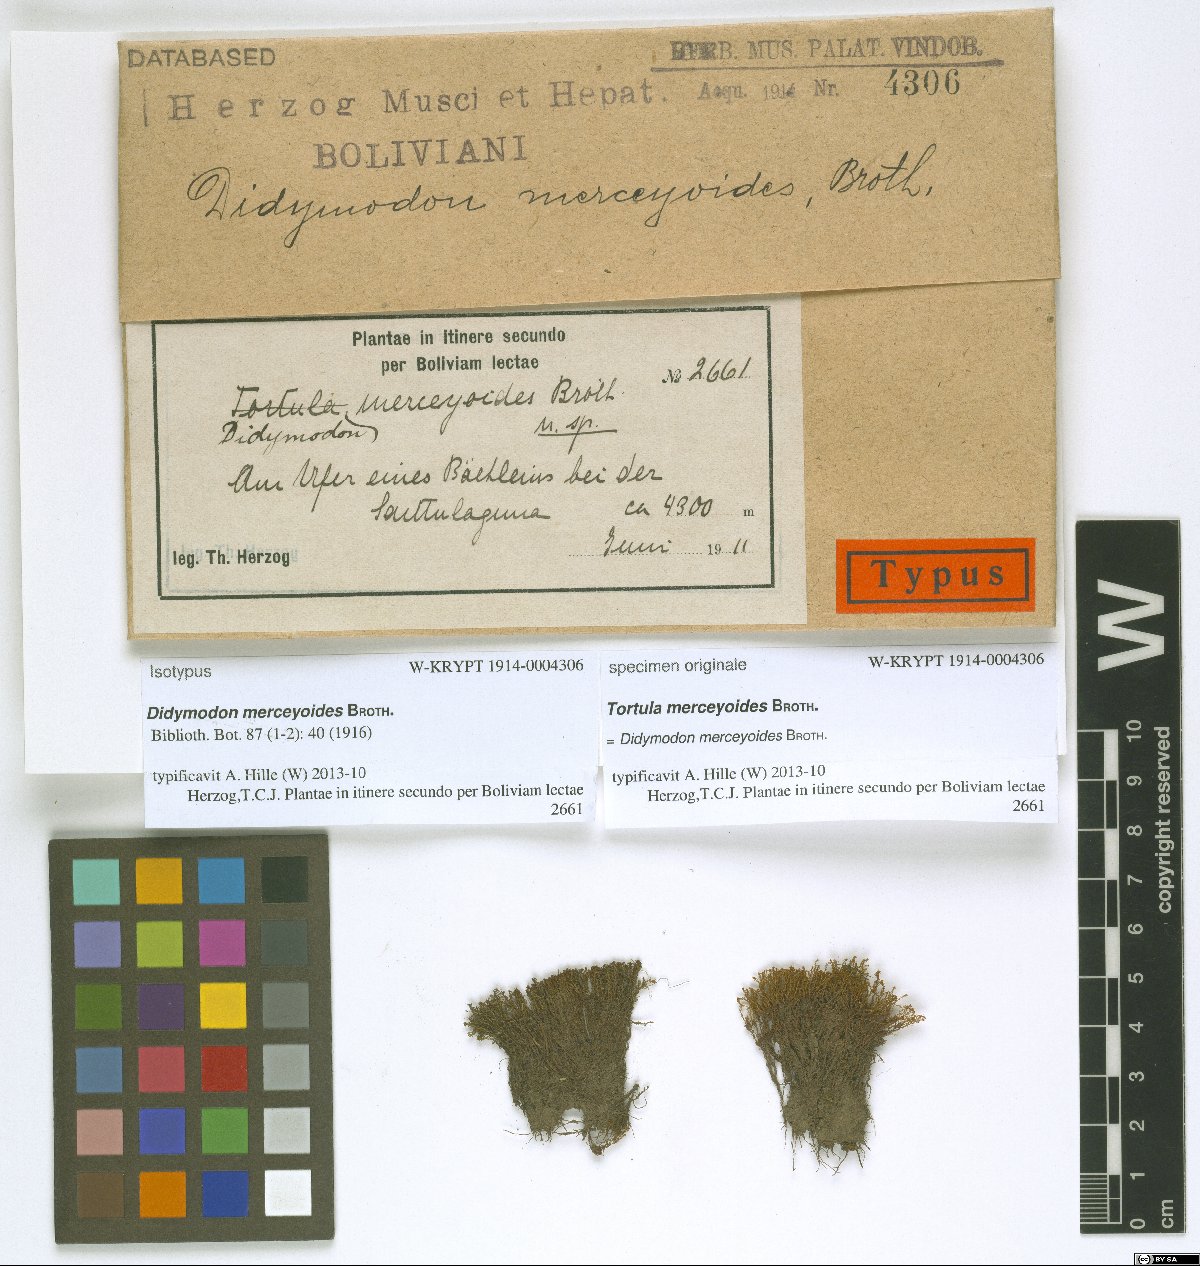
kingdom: Plantae
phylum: Bryophyta
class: Bryopsida
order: Pottiales
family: Pottiaceae
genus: Bryoerythrophyllum
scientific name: Bryoerythrophyllum campylocarpum
